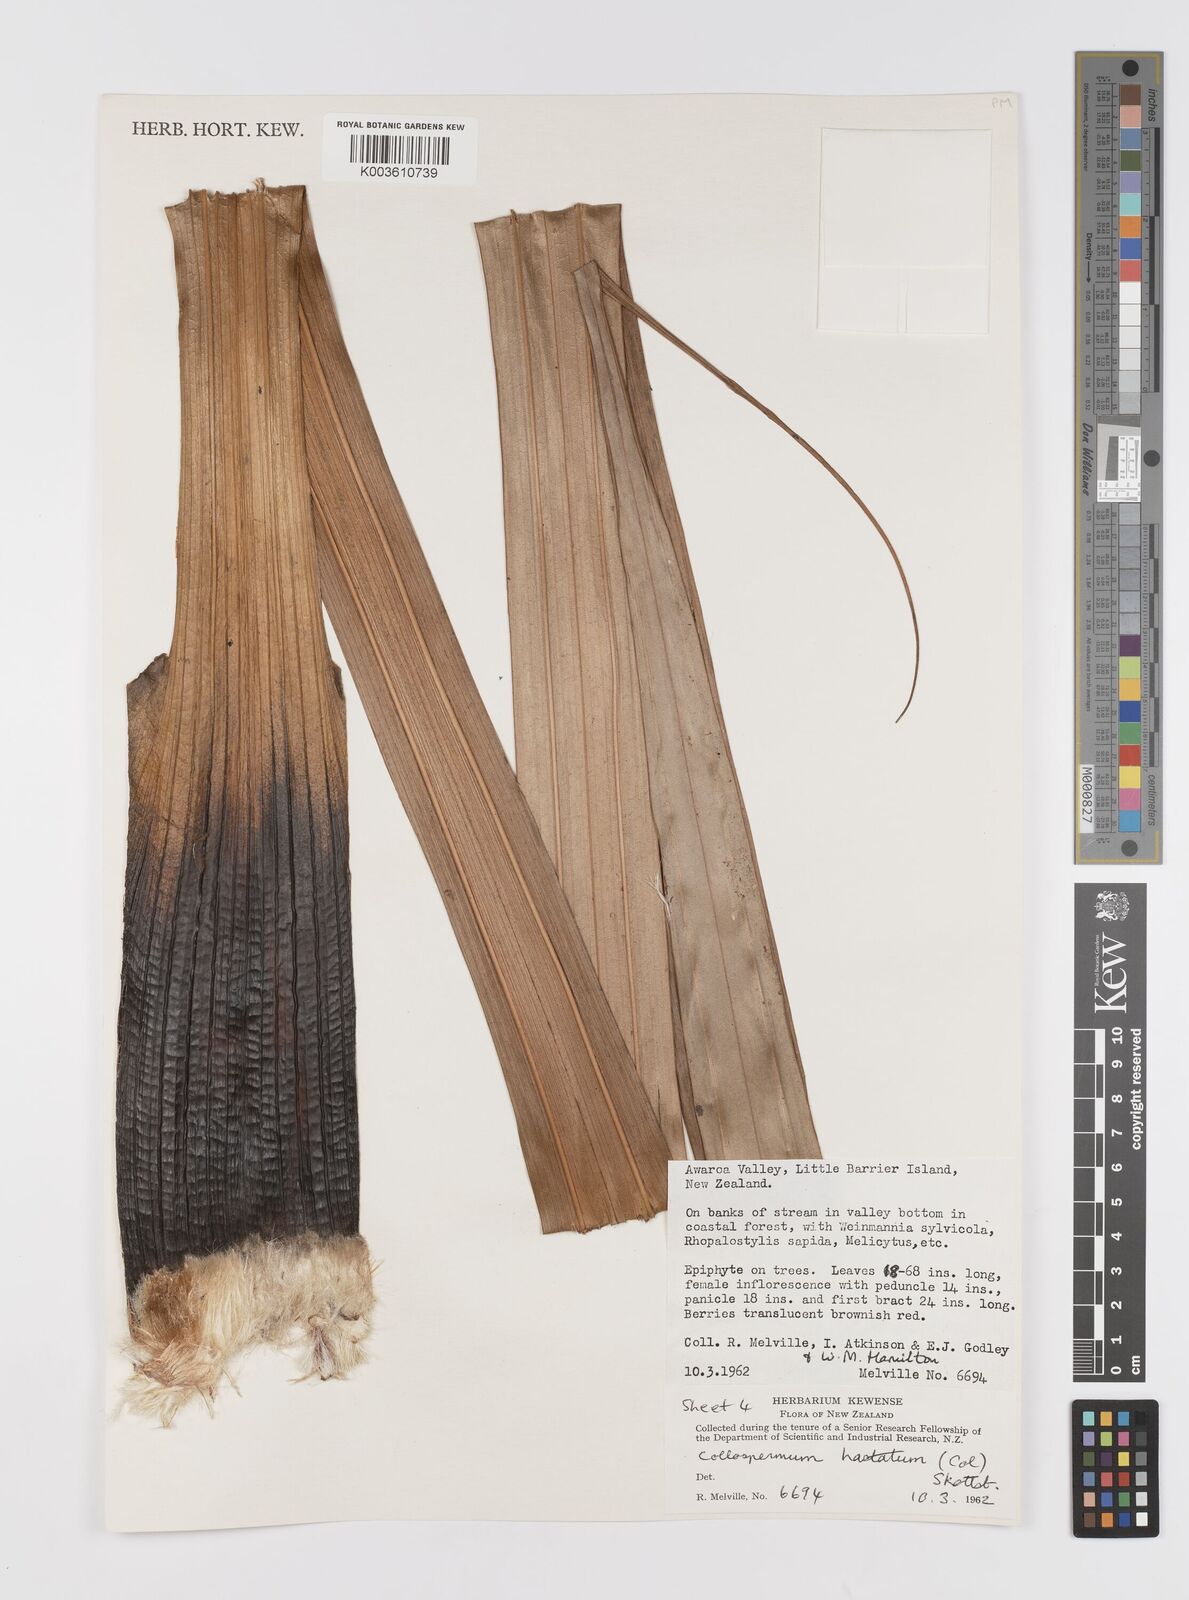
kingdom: Plantae
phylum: Tracheophyta
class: Liliopsida
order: Asparagales
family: Asteliaceae
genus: Astelia
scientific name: Astelia hastata
